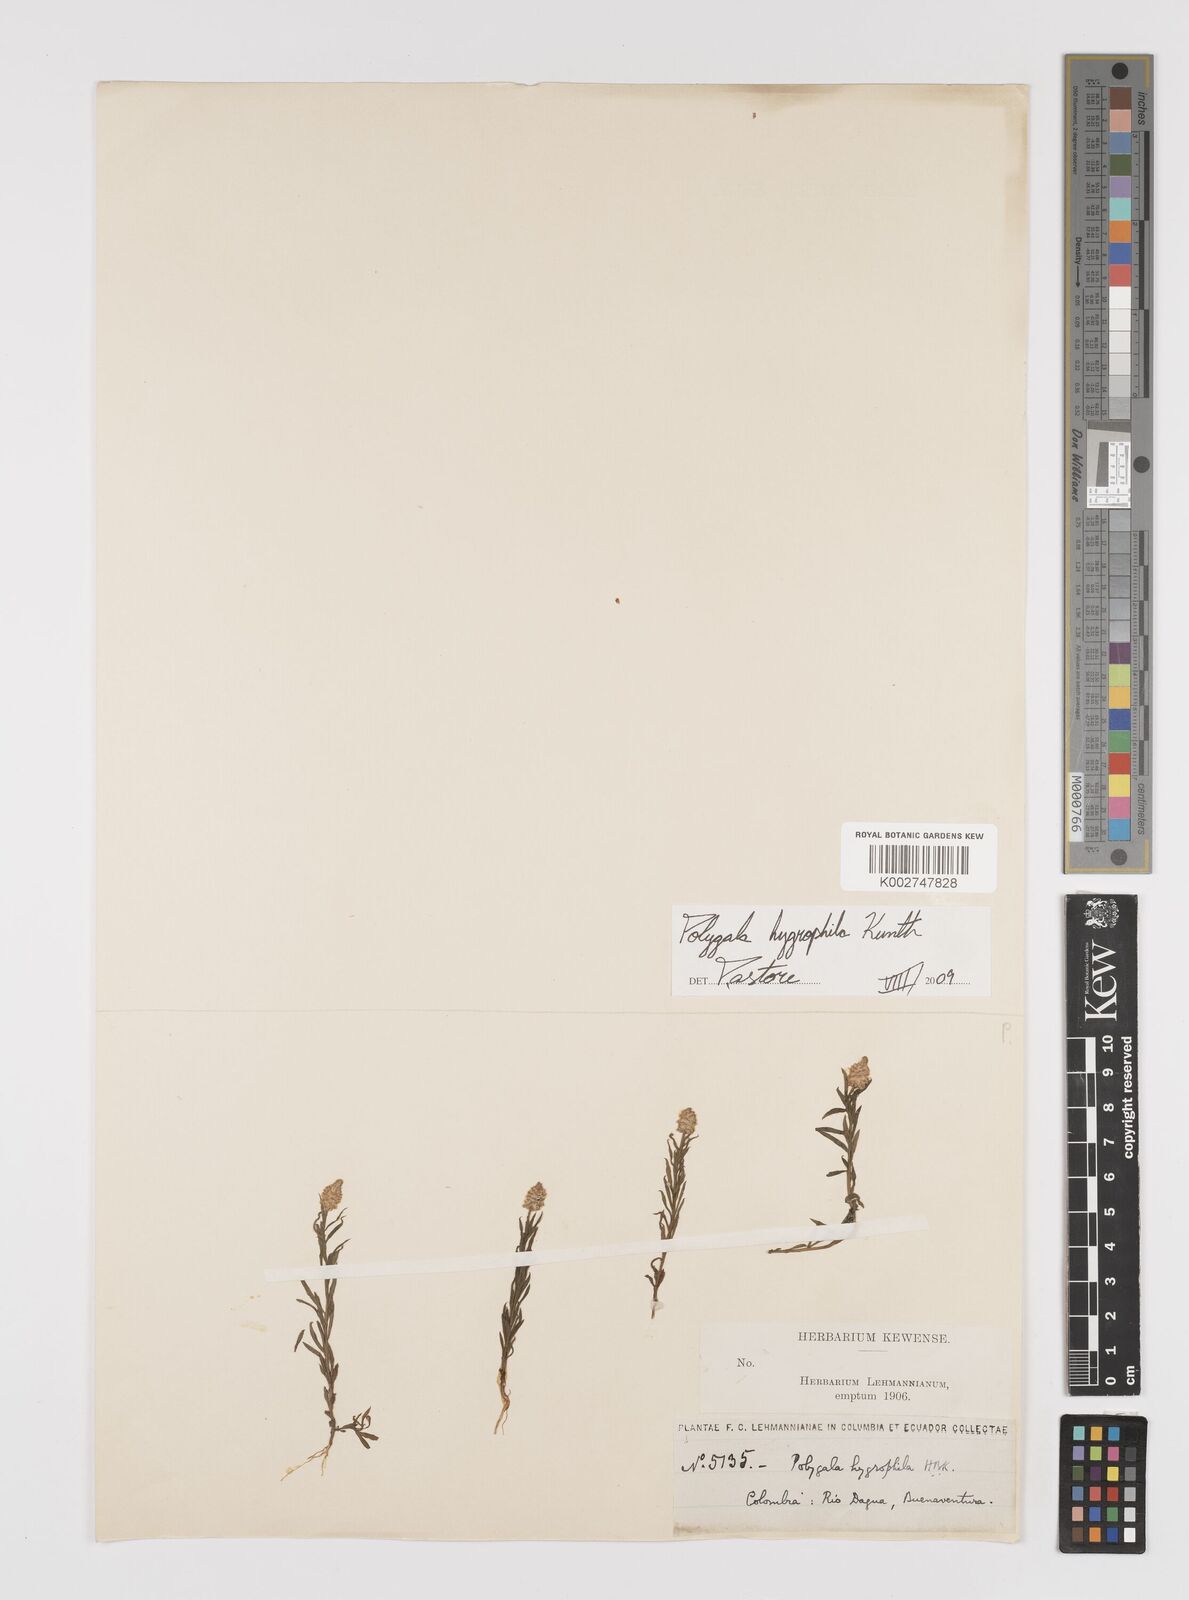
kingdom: Plantae
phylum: Tracheophyta
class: Magnoliopsida
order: Fabales
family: Polygalaceae
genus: Polygala
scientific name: Polygala hygrophila
